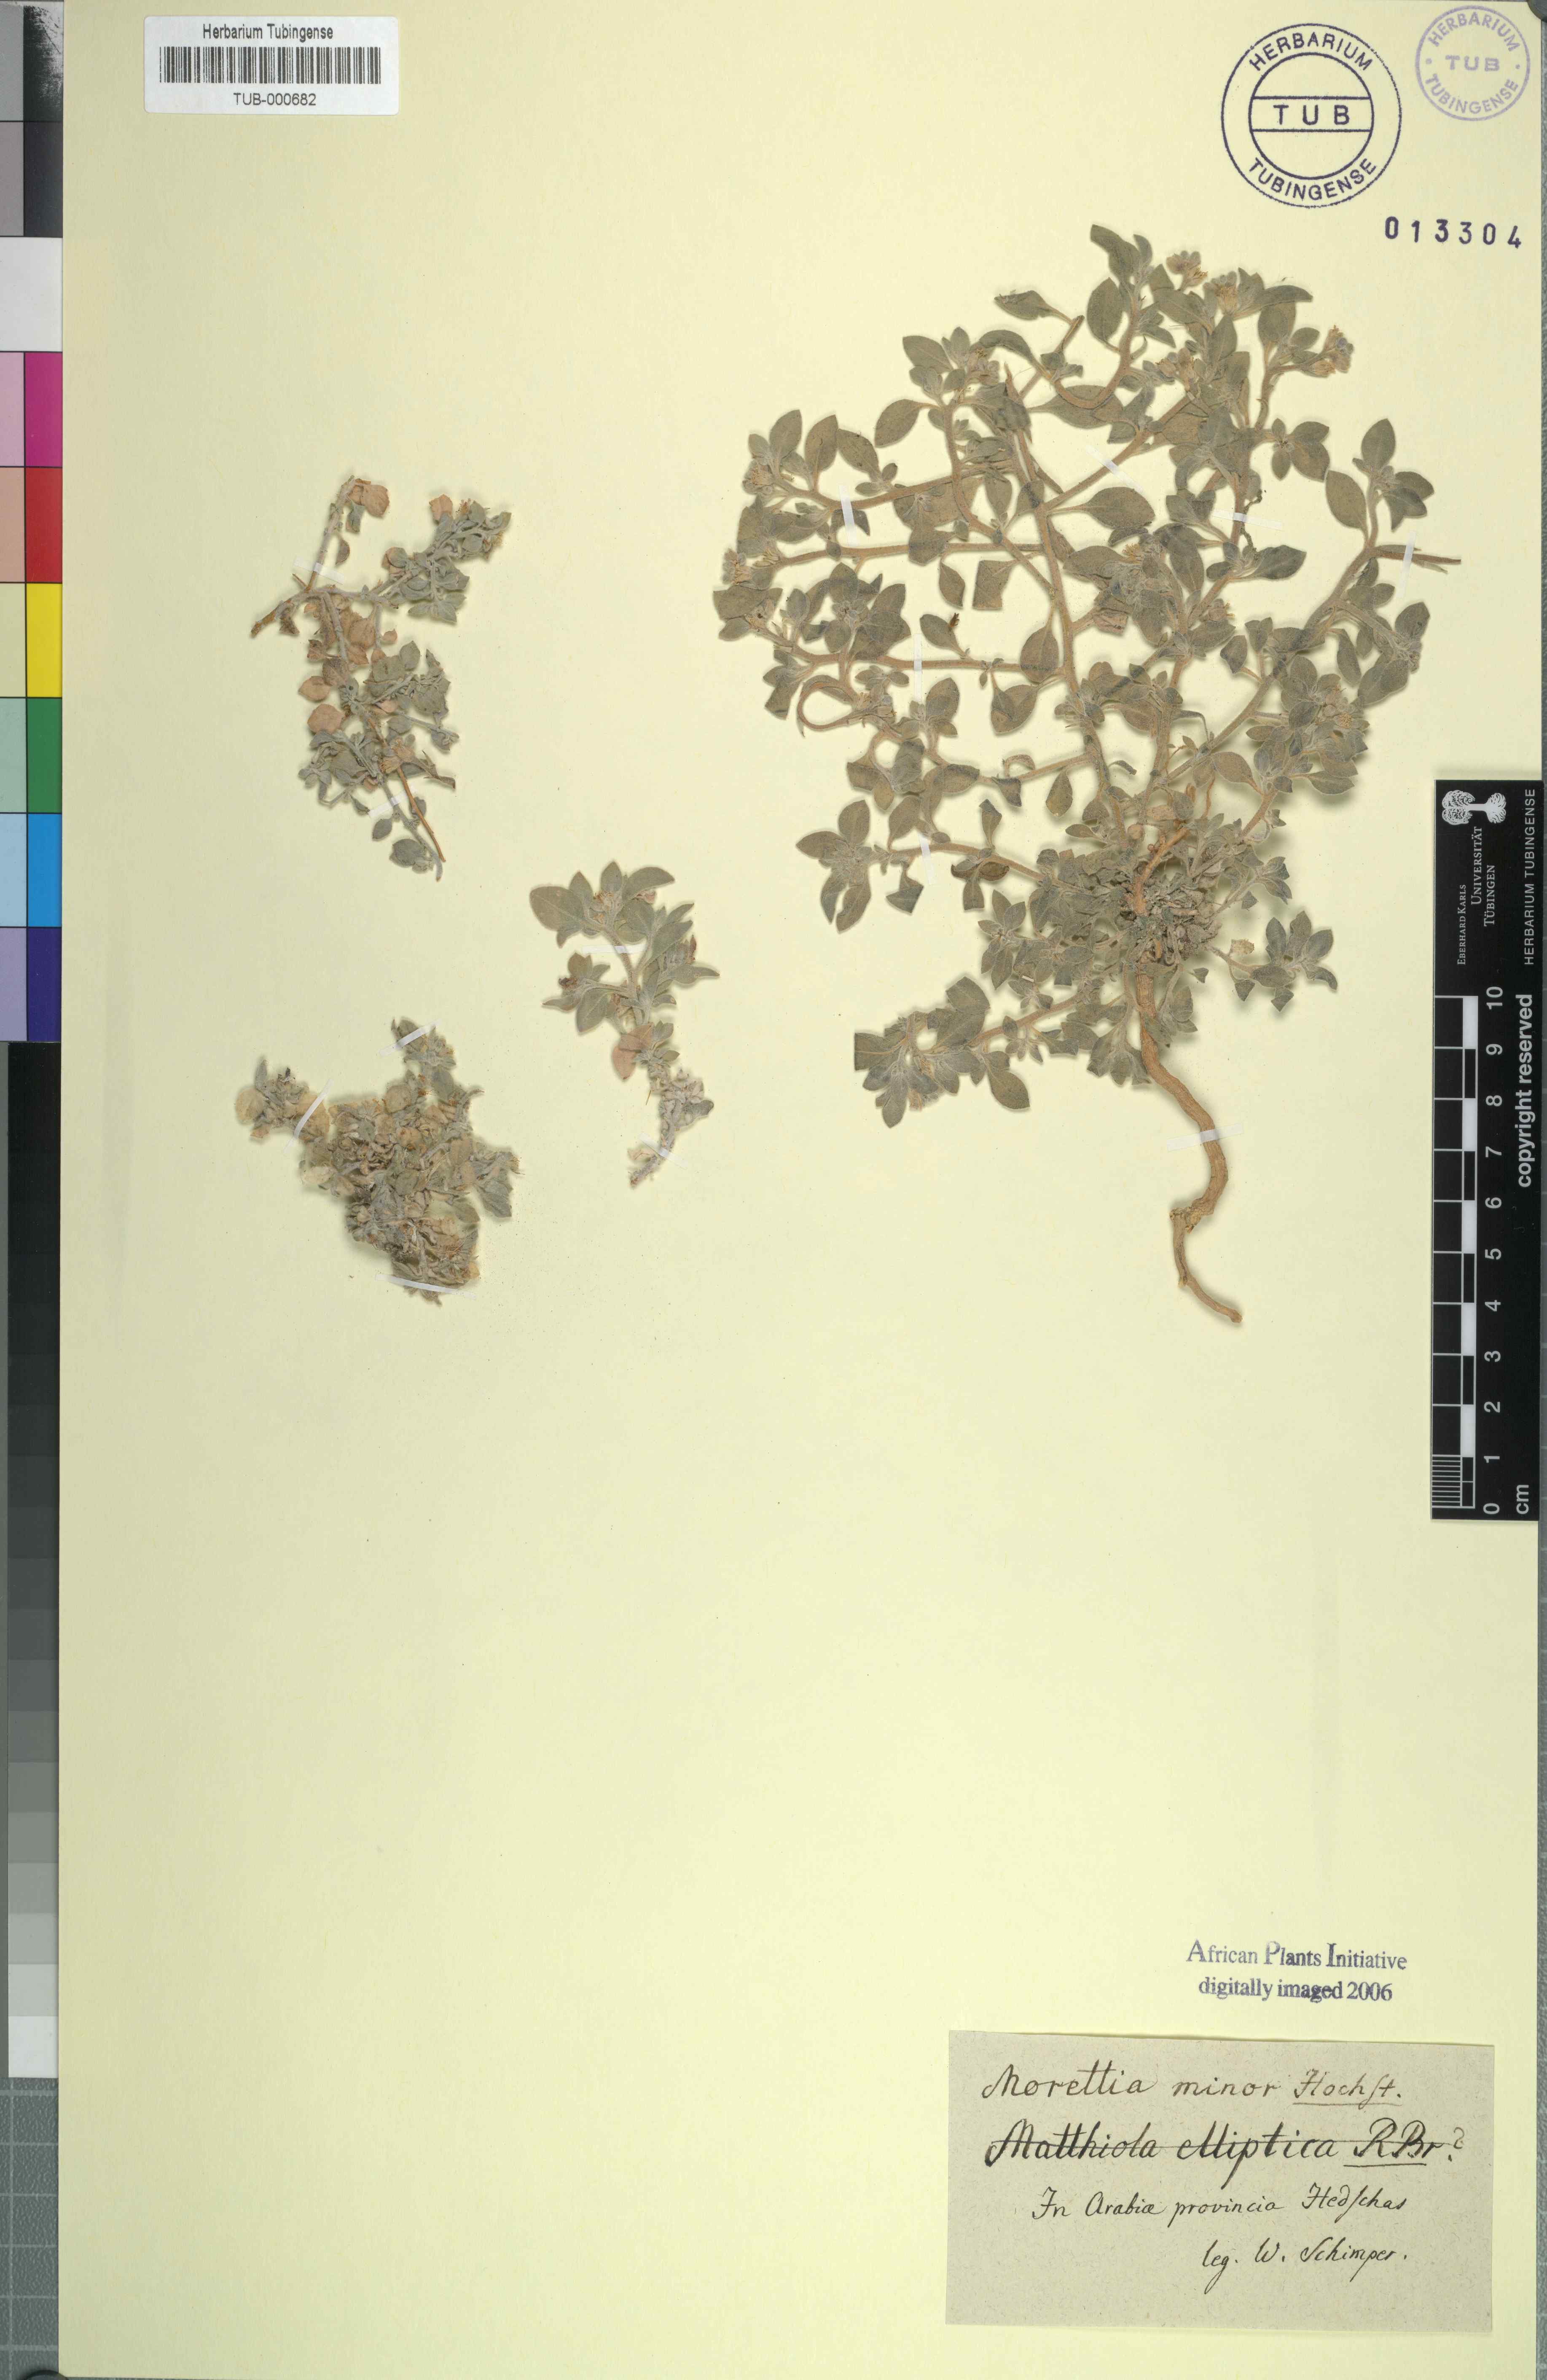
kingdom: Plantae
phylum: Tracheophyta
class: Magnoliopsida
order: Brassicales
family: Brassicaceae
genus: Morettia
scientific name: Morettia
